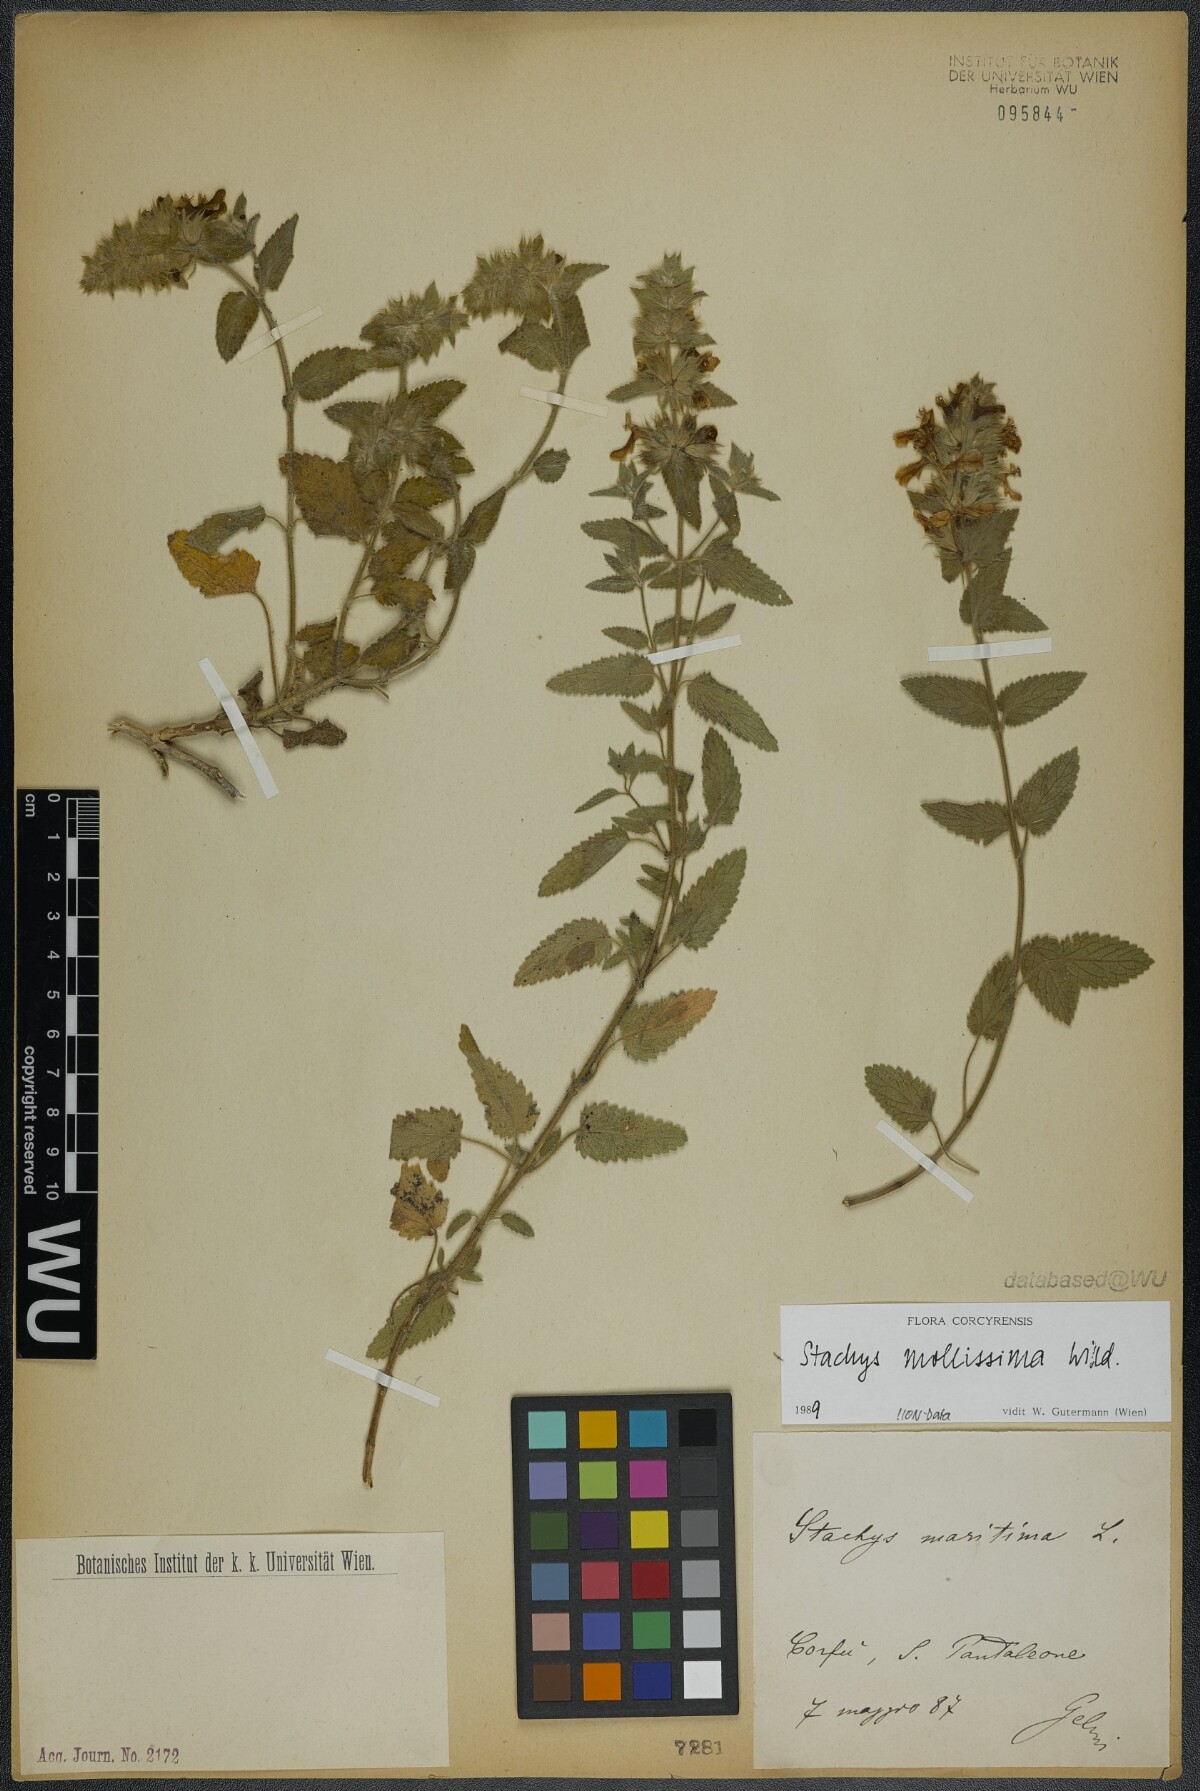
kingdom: Plantae
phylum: Tracheophyta
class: Magnoliopsida
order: Lamiales
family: Lamiaceae
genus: Stachys
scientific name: Stachys mollissima
